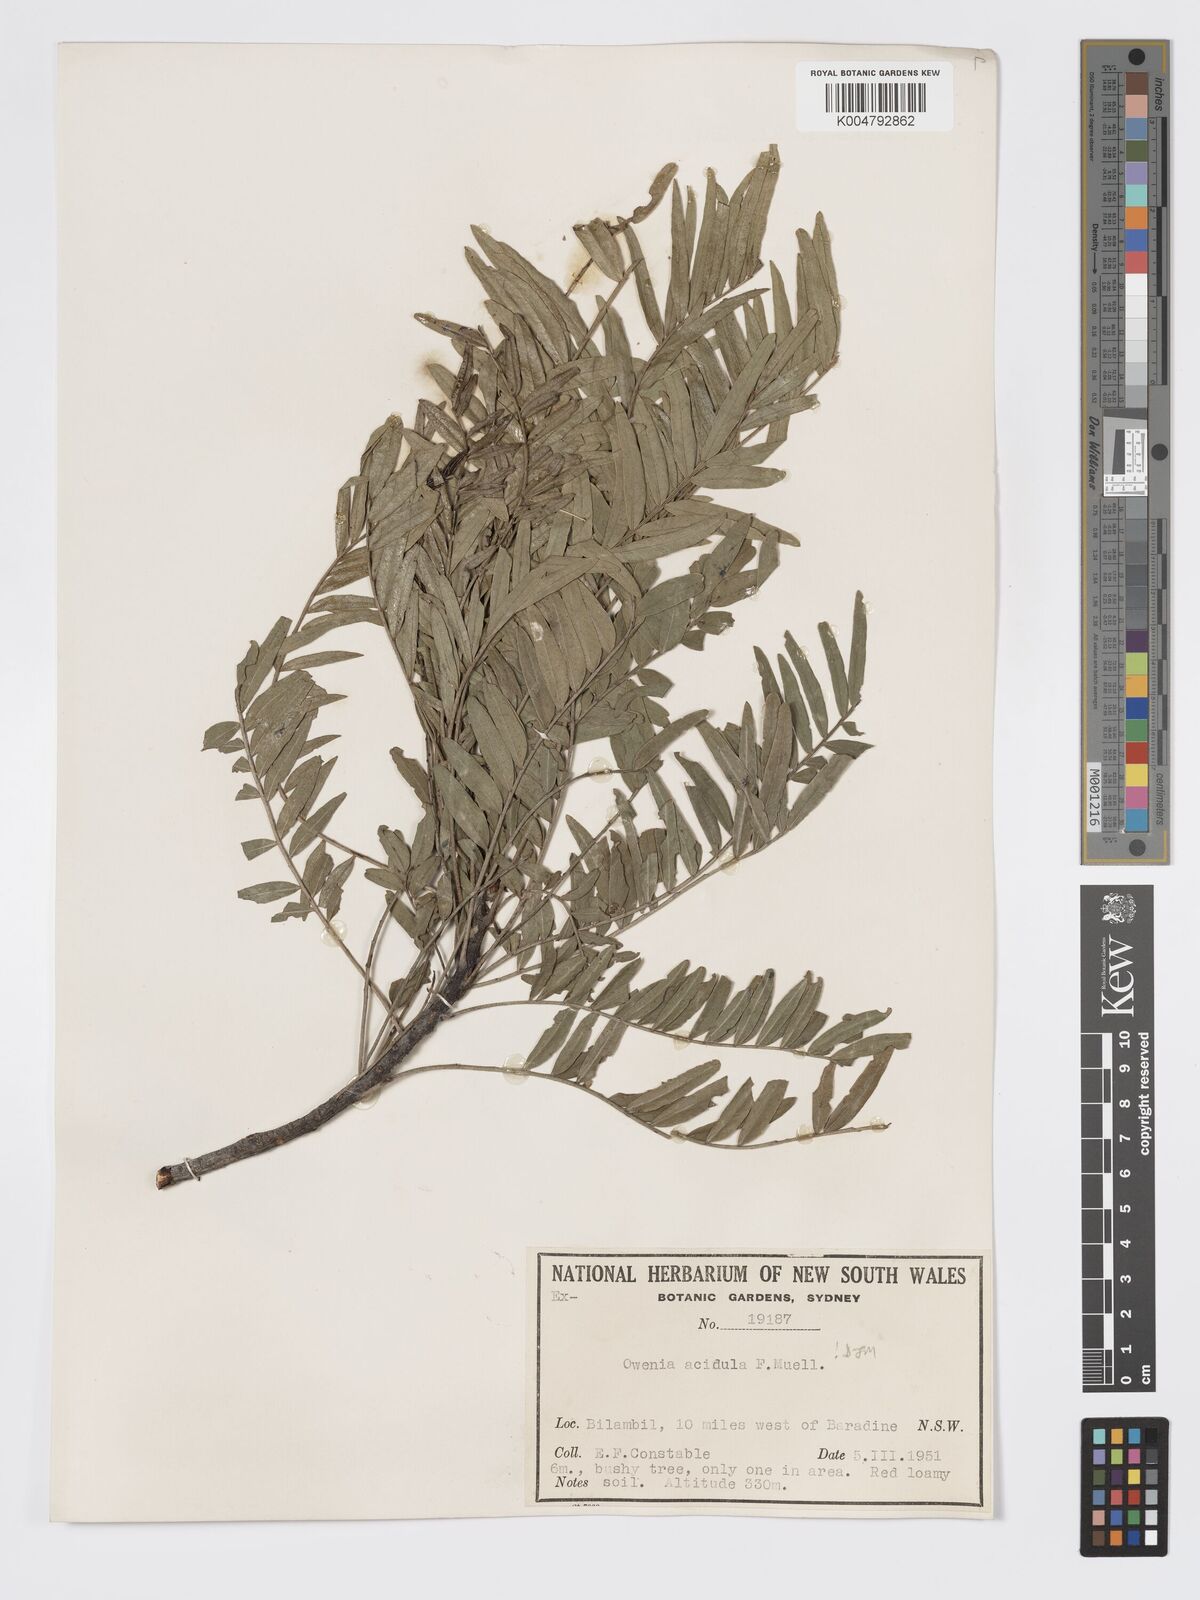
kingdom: Plantae
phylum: Tracheophyta
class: Magnoliopsida
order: Sapindales
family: Meliaceae
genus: Owenia
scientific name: Owenia acidula
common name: Tulipwood
